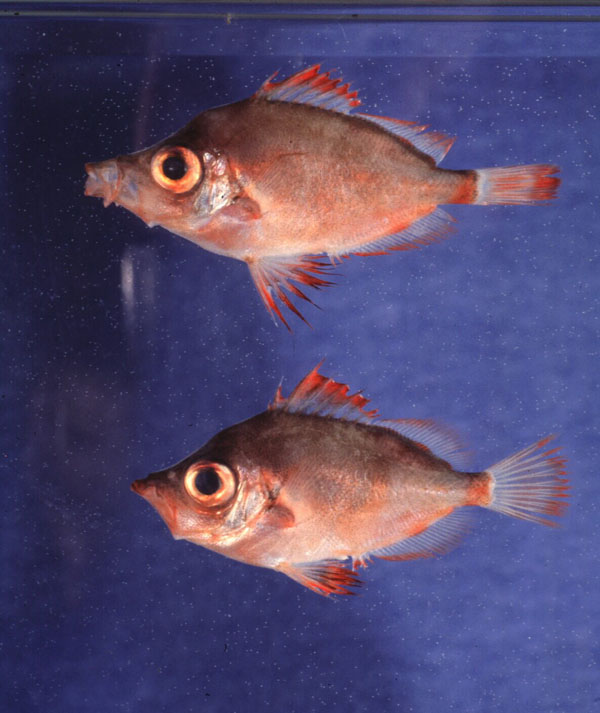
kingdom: Animalia
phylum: Chordata
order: Perciformes
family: Caproidae
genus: Capros
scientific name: Capros aper
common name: Boarfish
